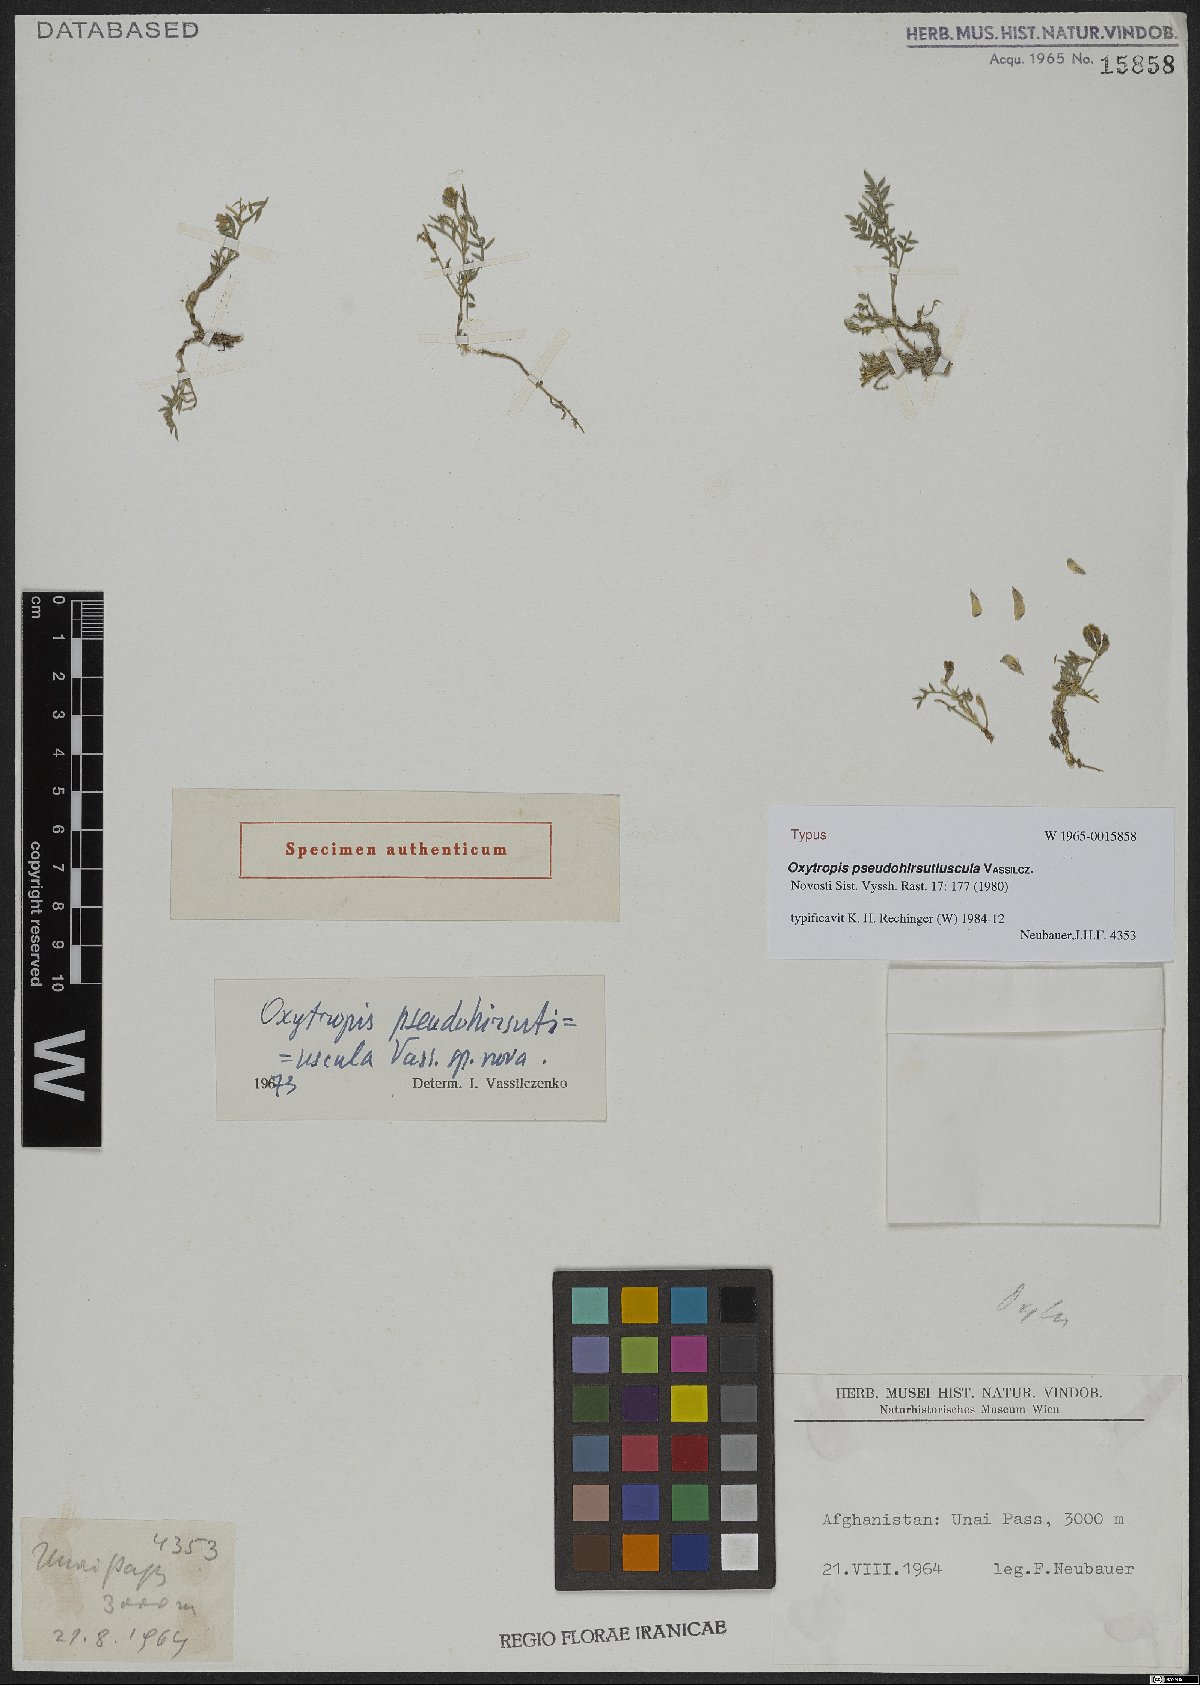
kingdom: Plantae
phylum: Tracheophyta
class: Magnoliopsida
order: Fabales
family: Fabaceae
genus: Oxytropis
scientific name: Oxytropis pseudohirsutiuscula
